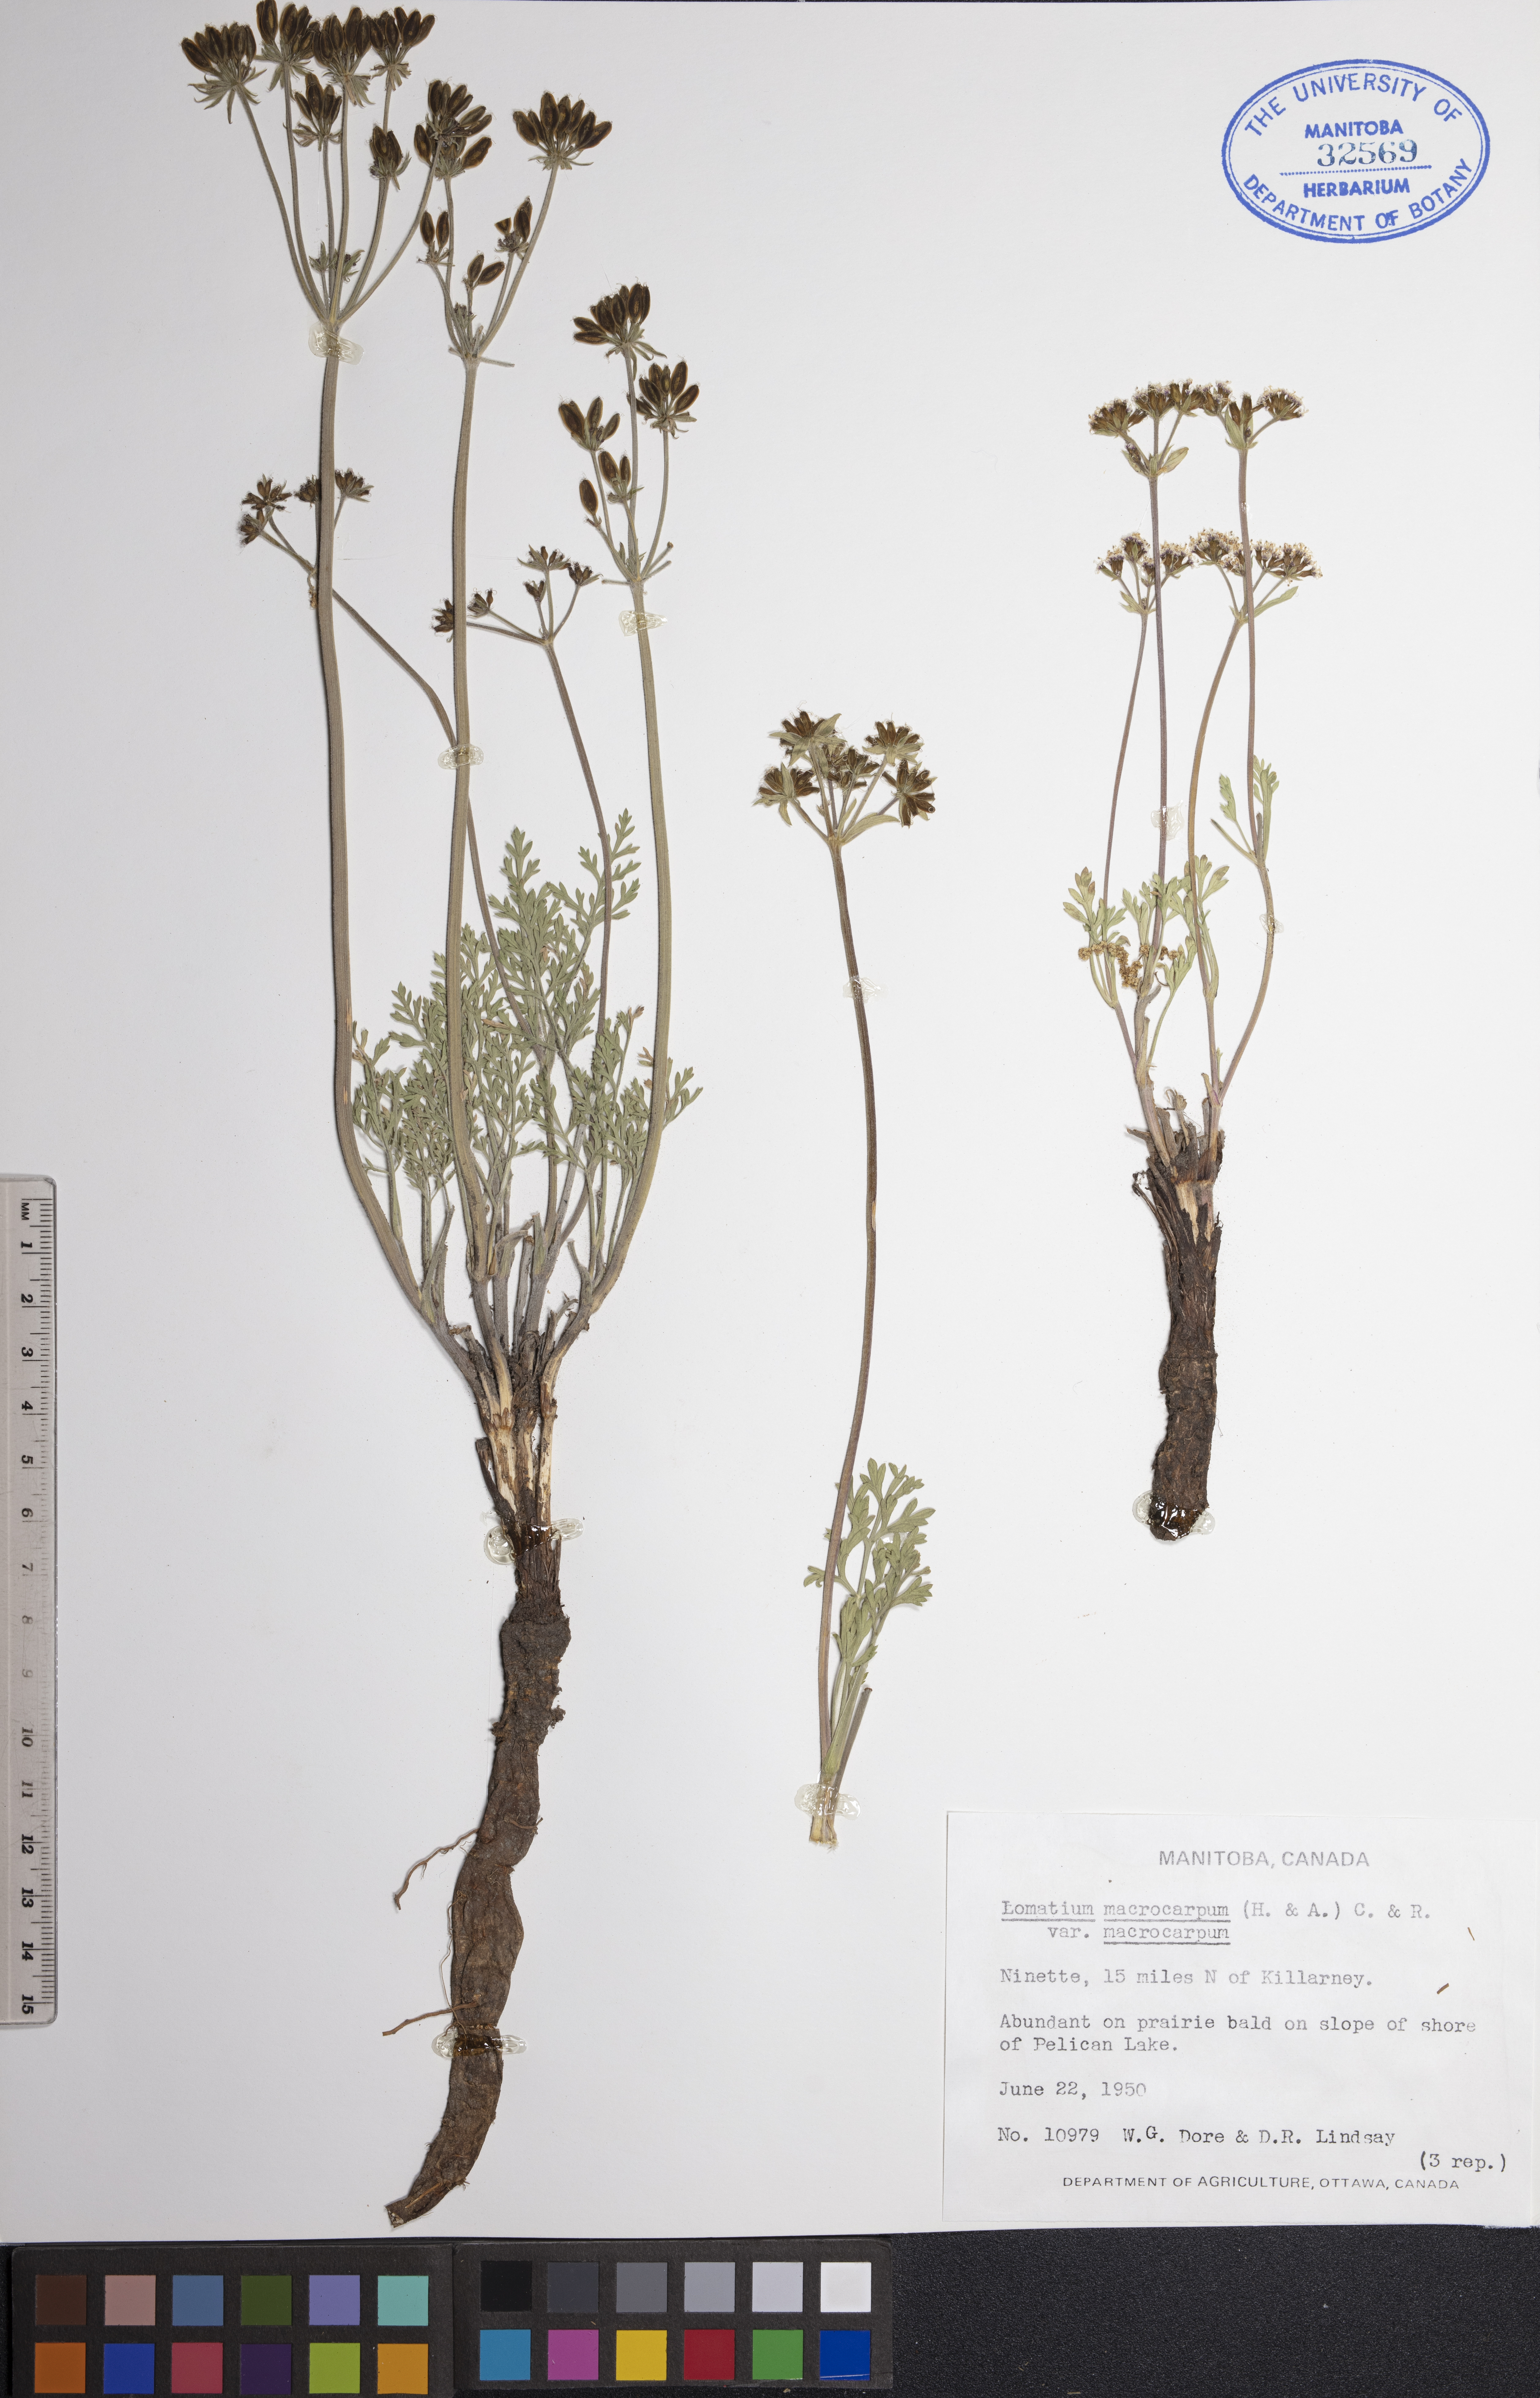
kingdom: Plantae
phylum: Tracheophyta
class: Magnoliopsida
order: Apiales
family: Apiaceae
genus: Lomatium
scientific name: Lomatium macrocarpum
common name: Big-seed biscuitroot
